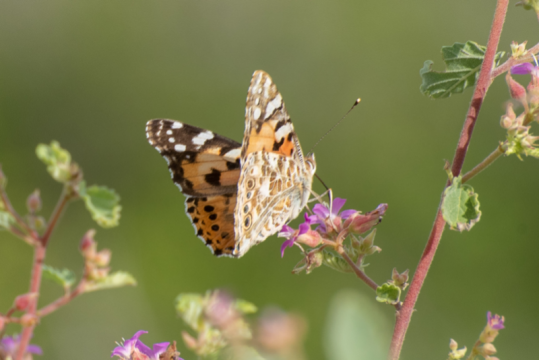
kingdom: Animalia
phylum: Arthropoda
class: Insecta
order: Lepidoptera
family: Nymphalidae
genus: Vanessa
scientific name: Vanessa cardui
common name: Painted Lady
